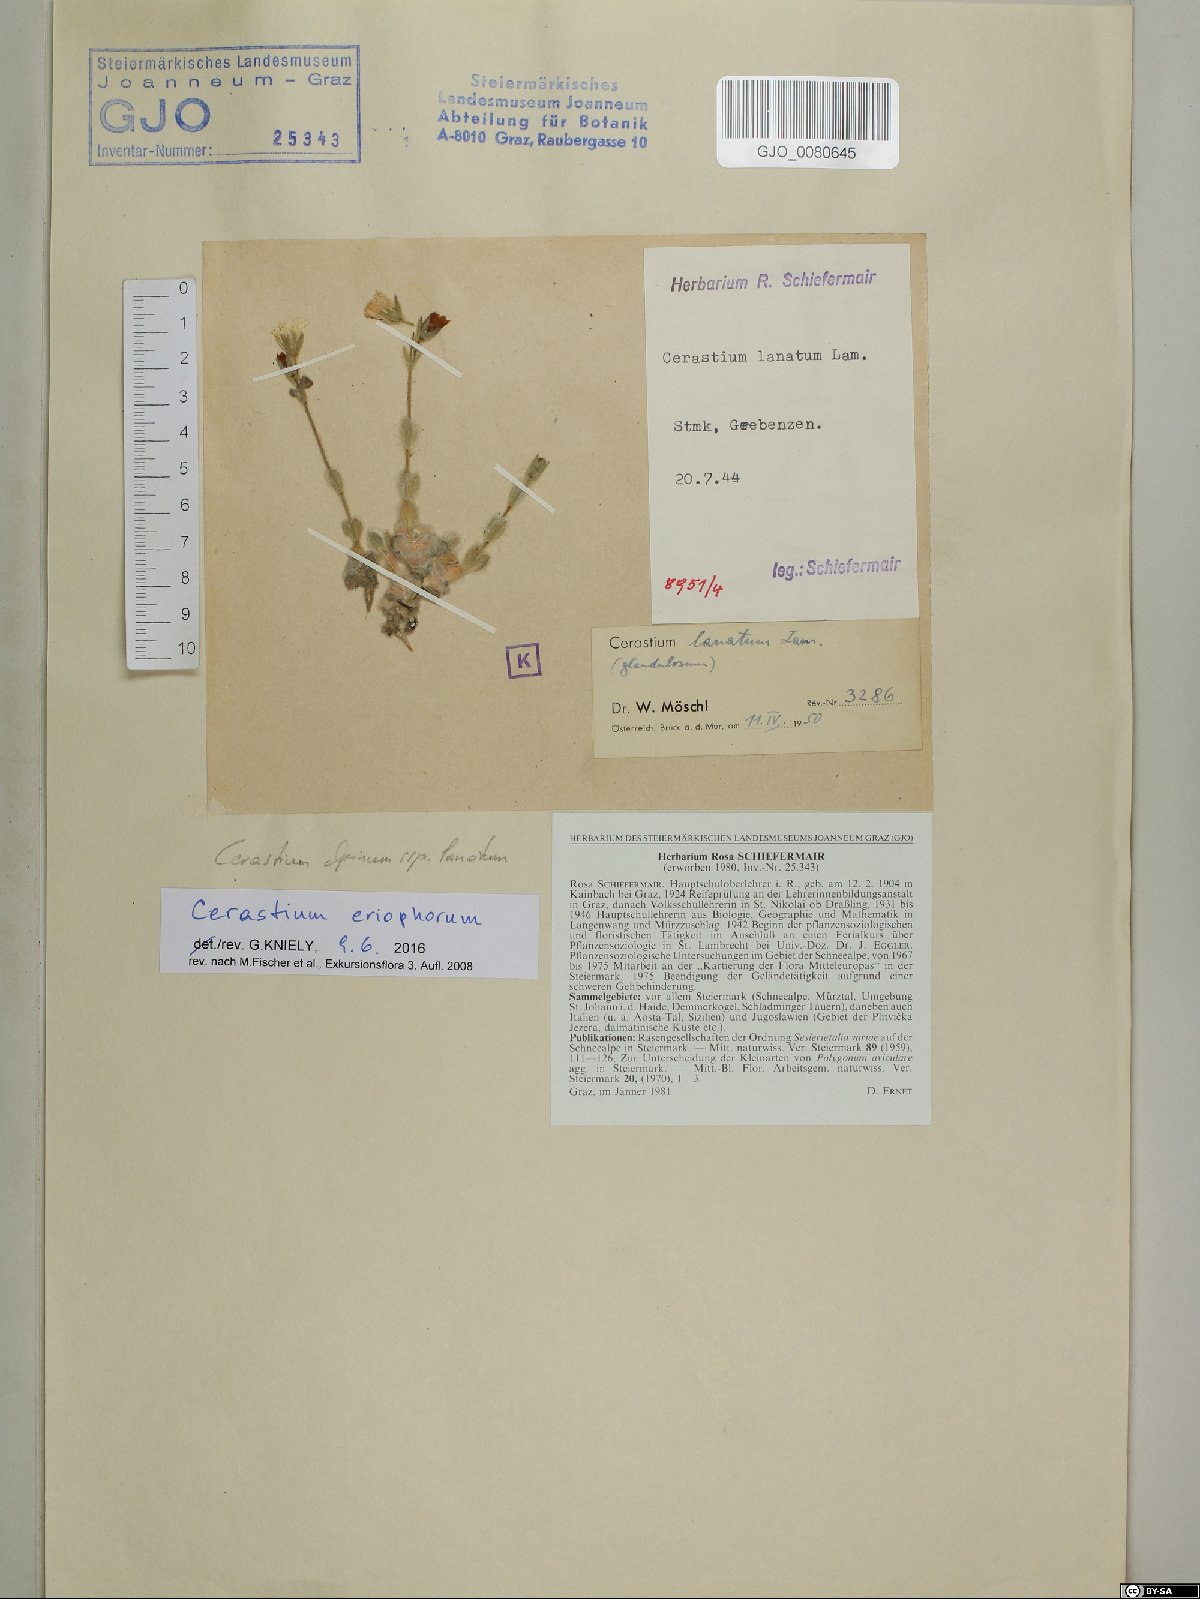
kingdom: Plantae
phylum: Tracheophyta
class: Magnoliopsida
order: Caryophyllales
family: Caryophyllaceae
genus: Cerastium
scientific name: Cerastium eriophorum
